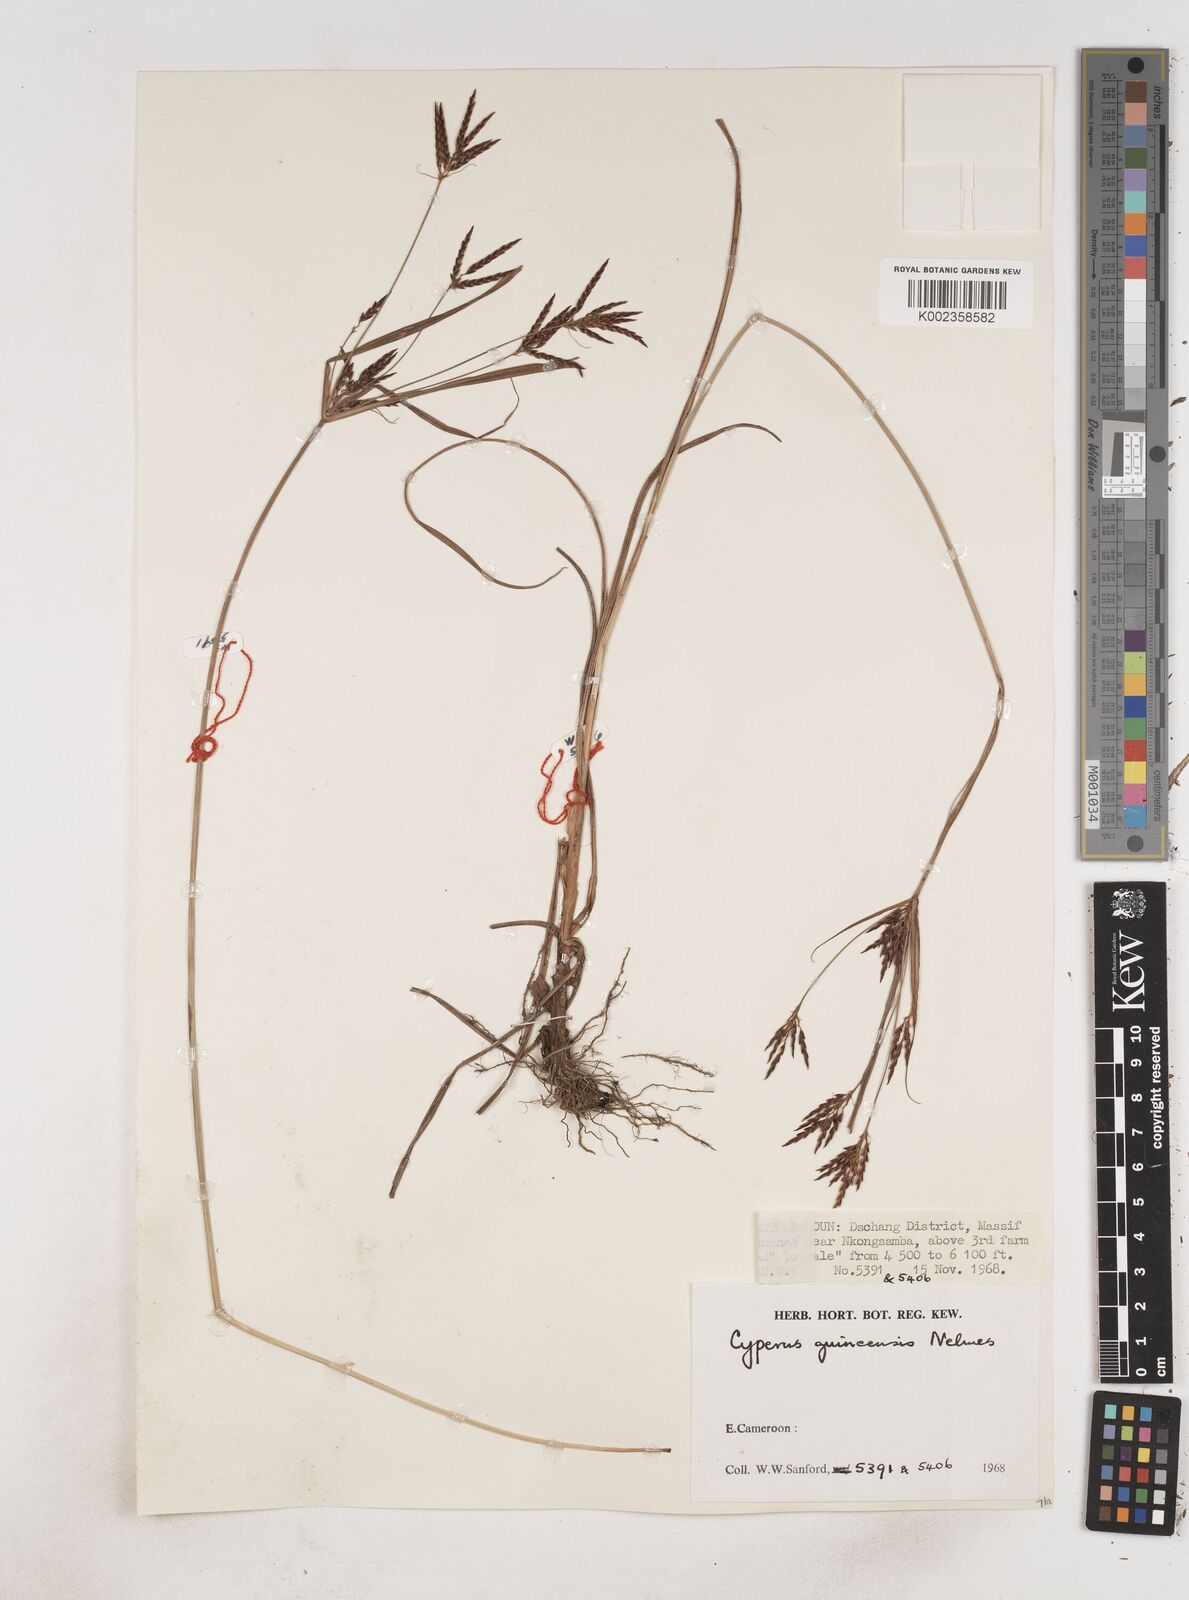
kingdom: Plantae
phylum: Tracheophyta
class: Liliopsida
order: Poales
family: Cyperaceae
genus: Cyperus
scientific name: Cyperus tenuiculmis
